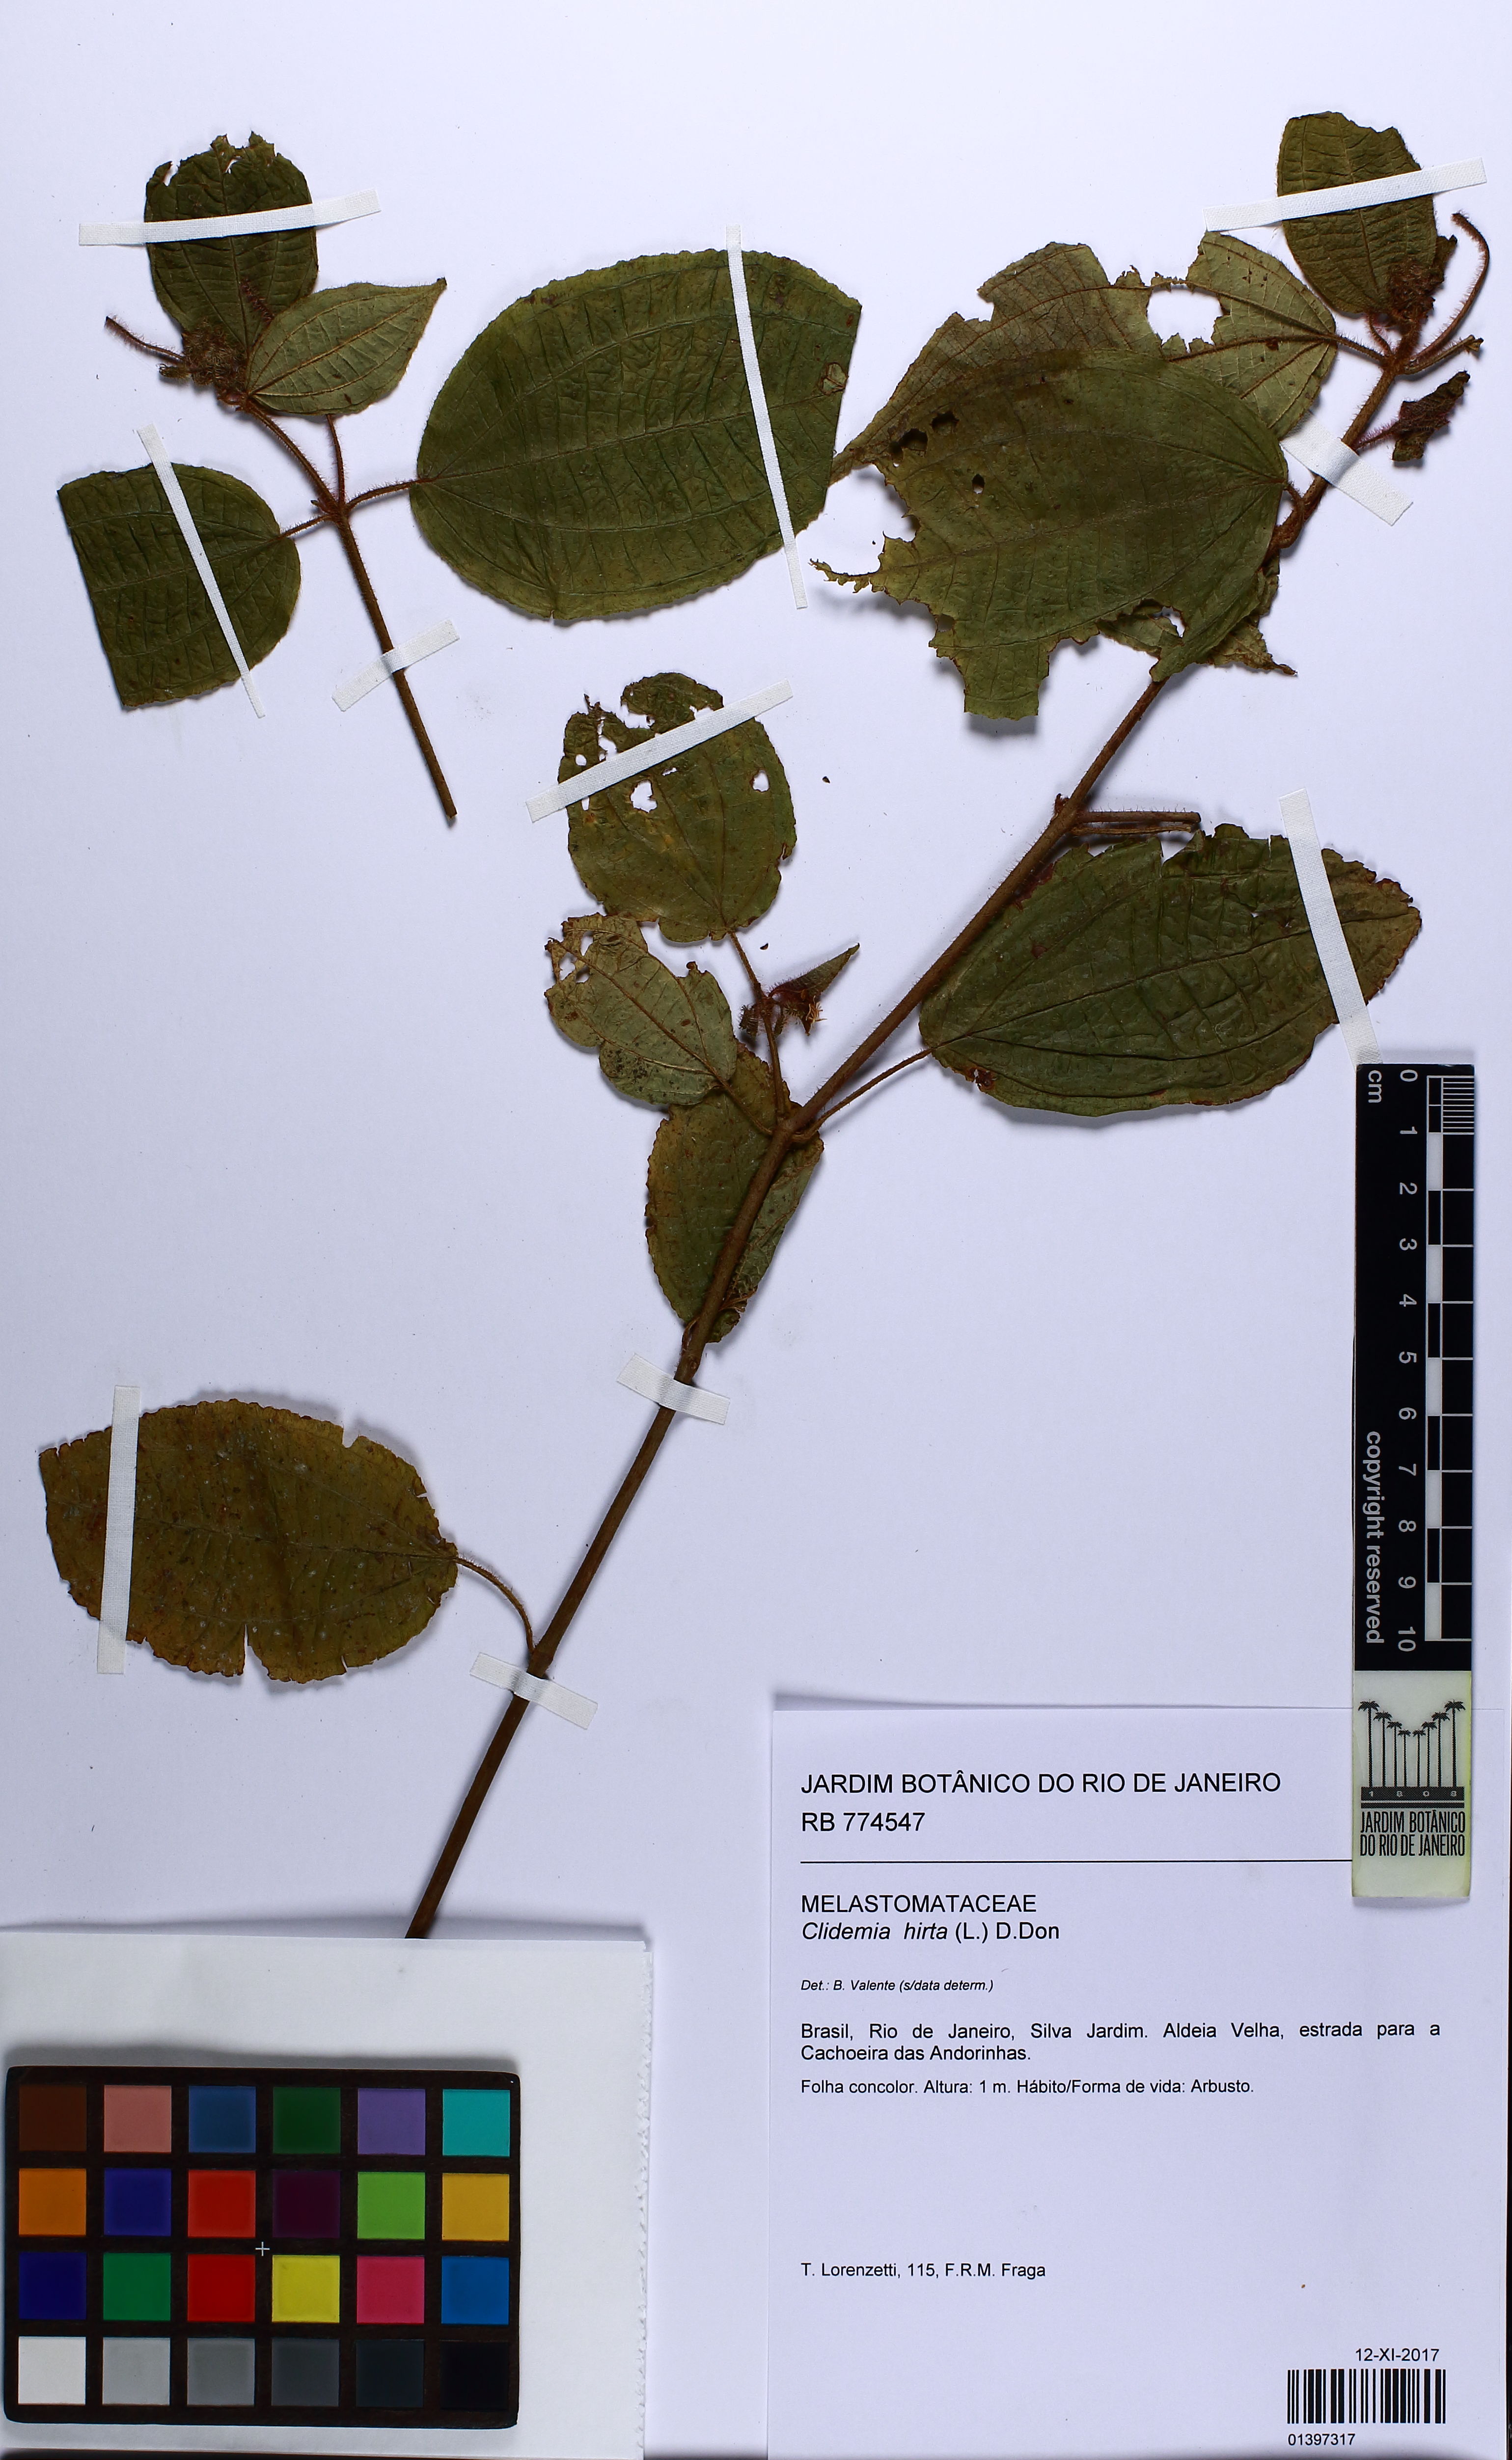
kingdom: Plantae
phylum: Tracheophyta
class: Magnoliopsida
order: Myrtales
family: Melastomataceae
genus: Miconia
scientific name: Miconia crenata
